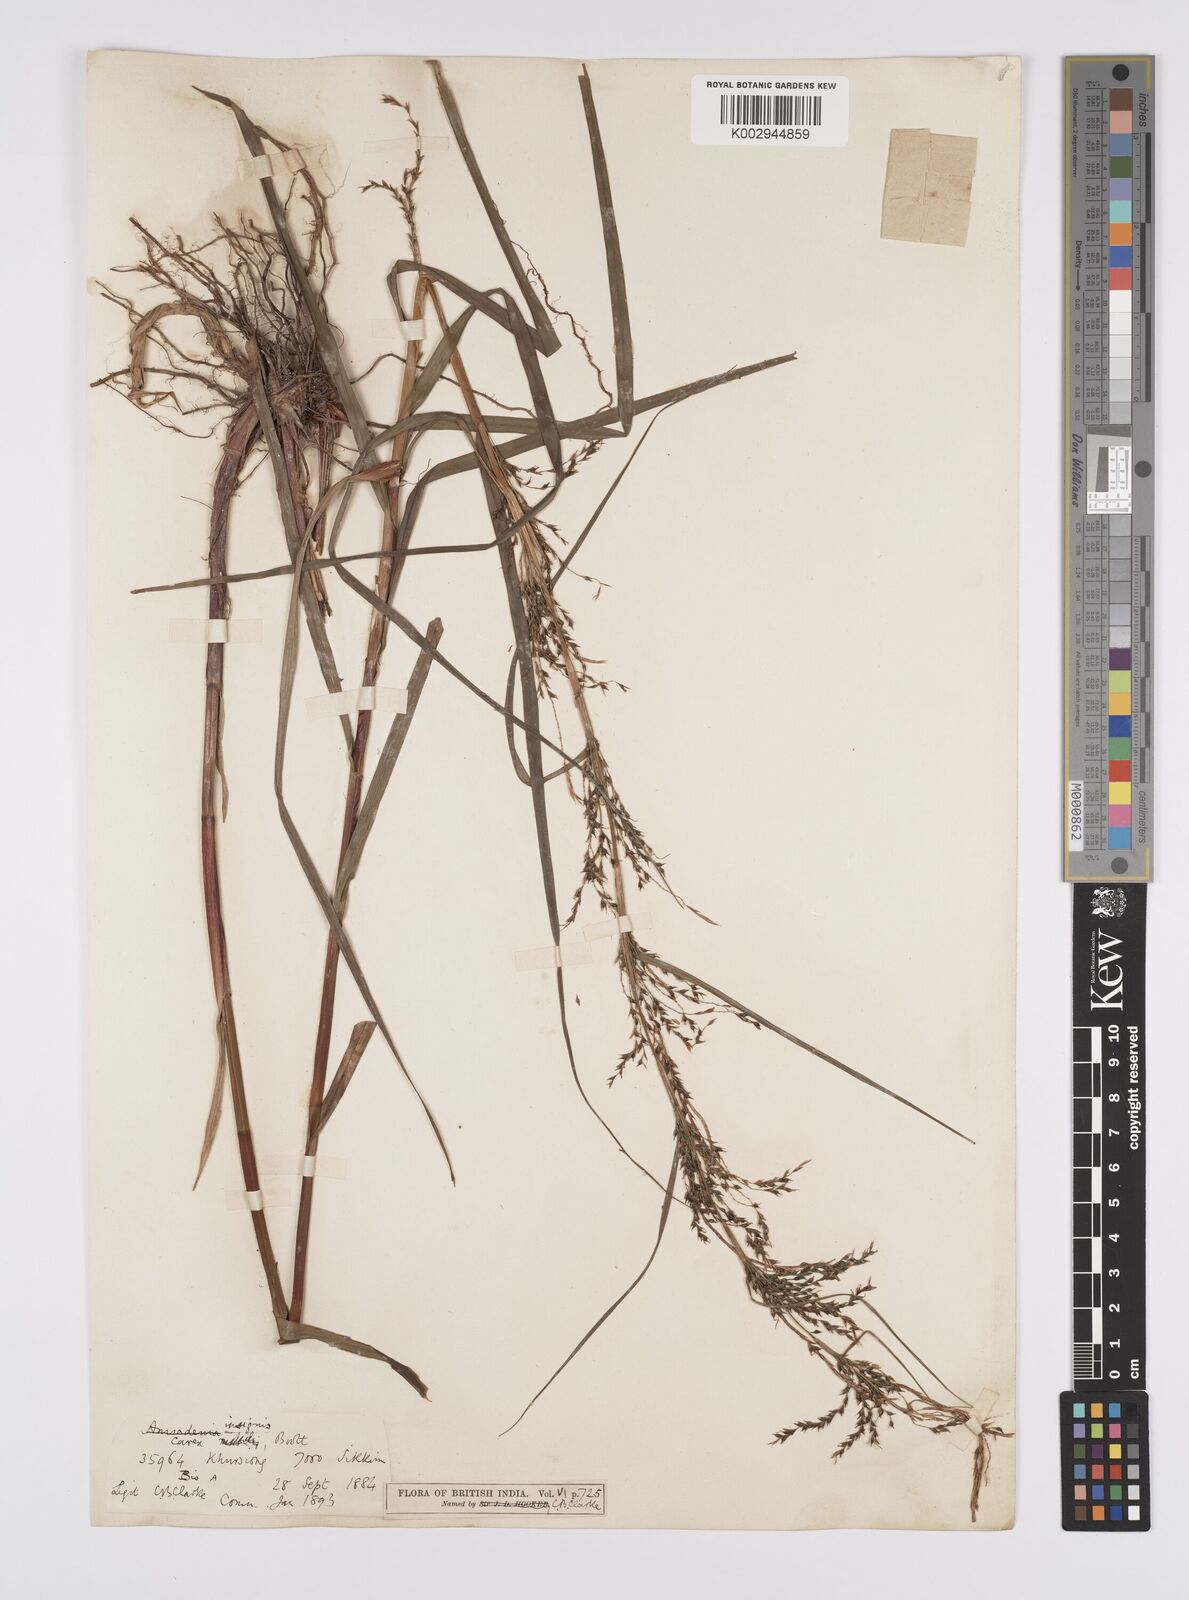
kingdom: Plantae
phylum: Tracheophyta
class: Liliopsida
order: Poales
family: Cyperaceae
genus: Carex
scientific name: Carex insignis
